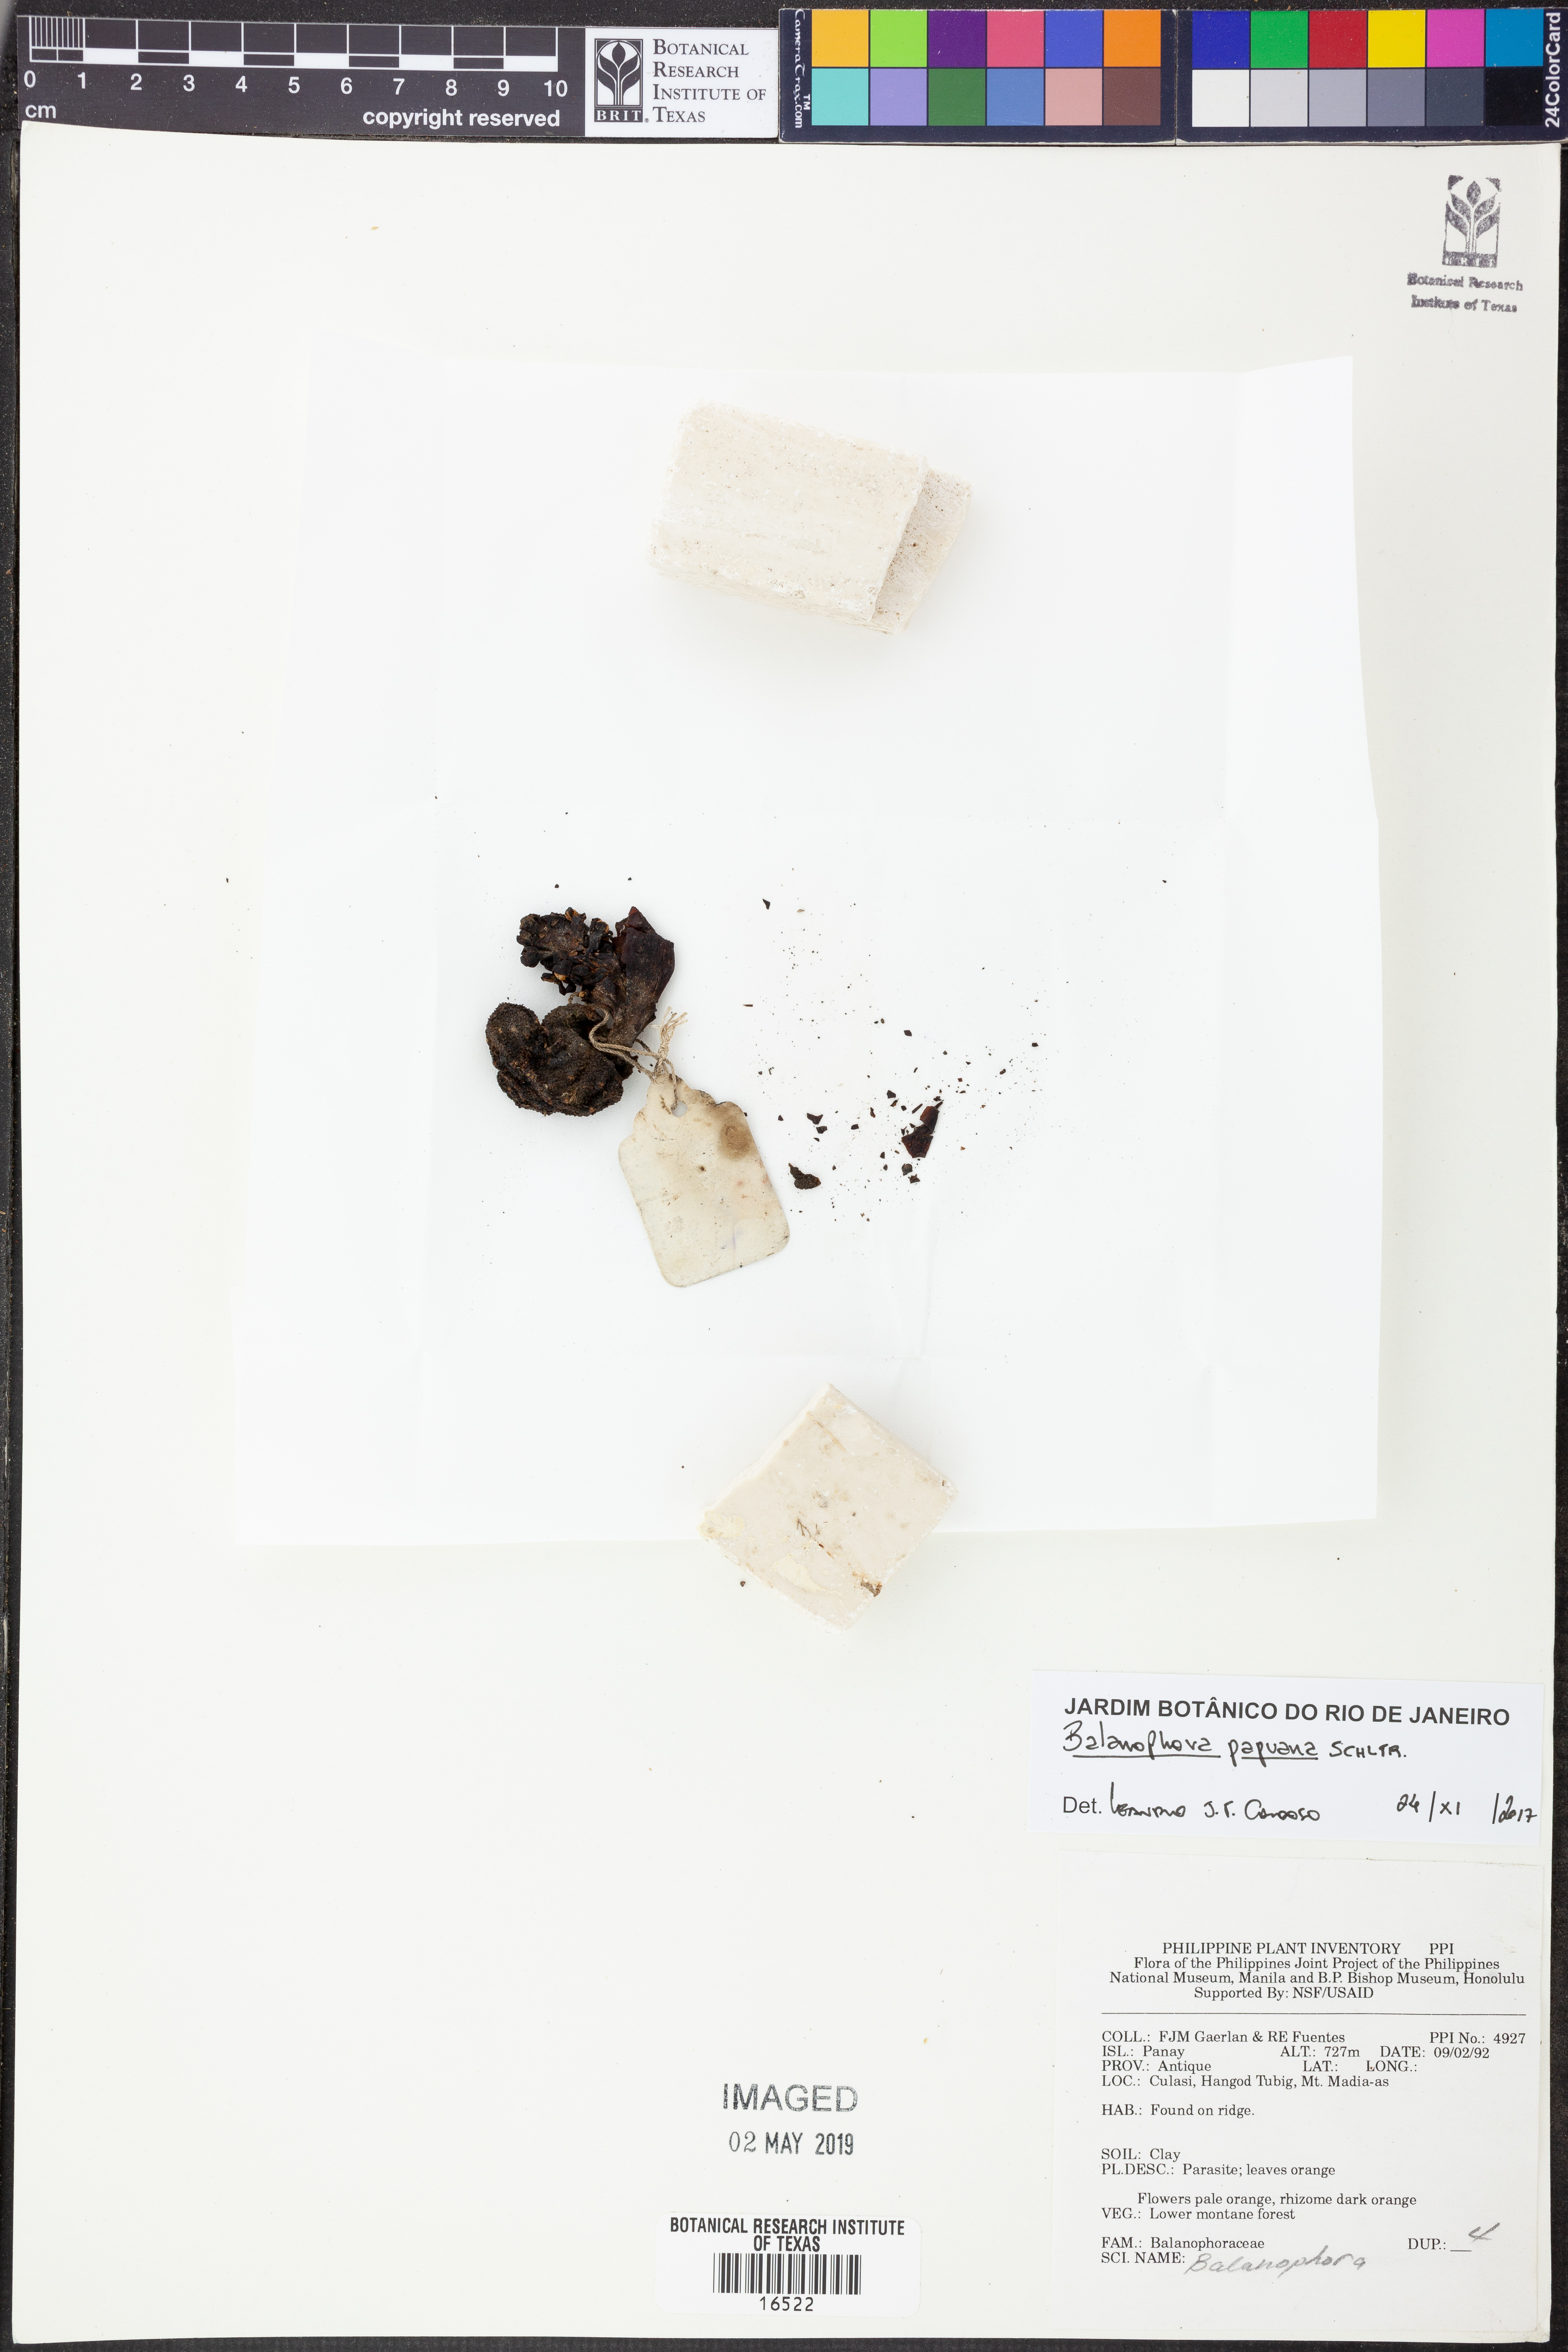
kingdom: Plantae
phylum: Tracheophyta
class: Magnoliopsida
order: Santalales
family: Balanophoraceae
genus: Balanophora
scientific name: Balanophora papuana
